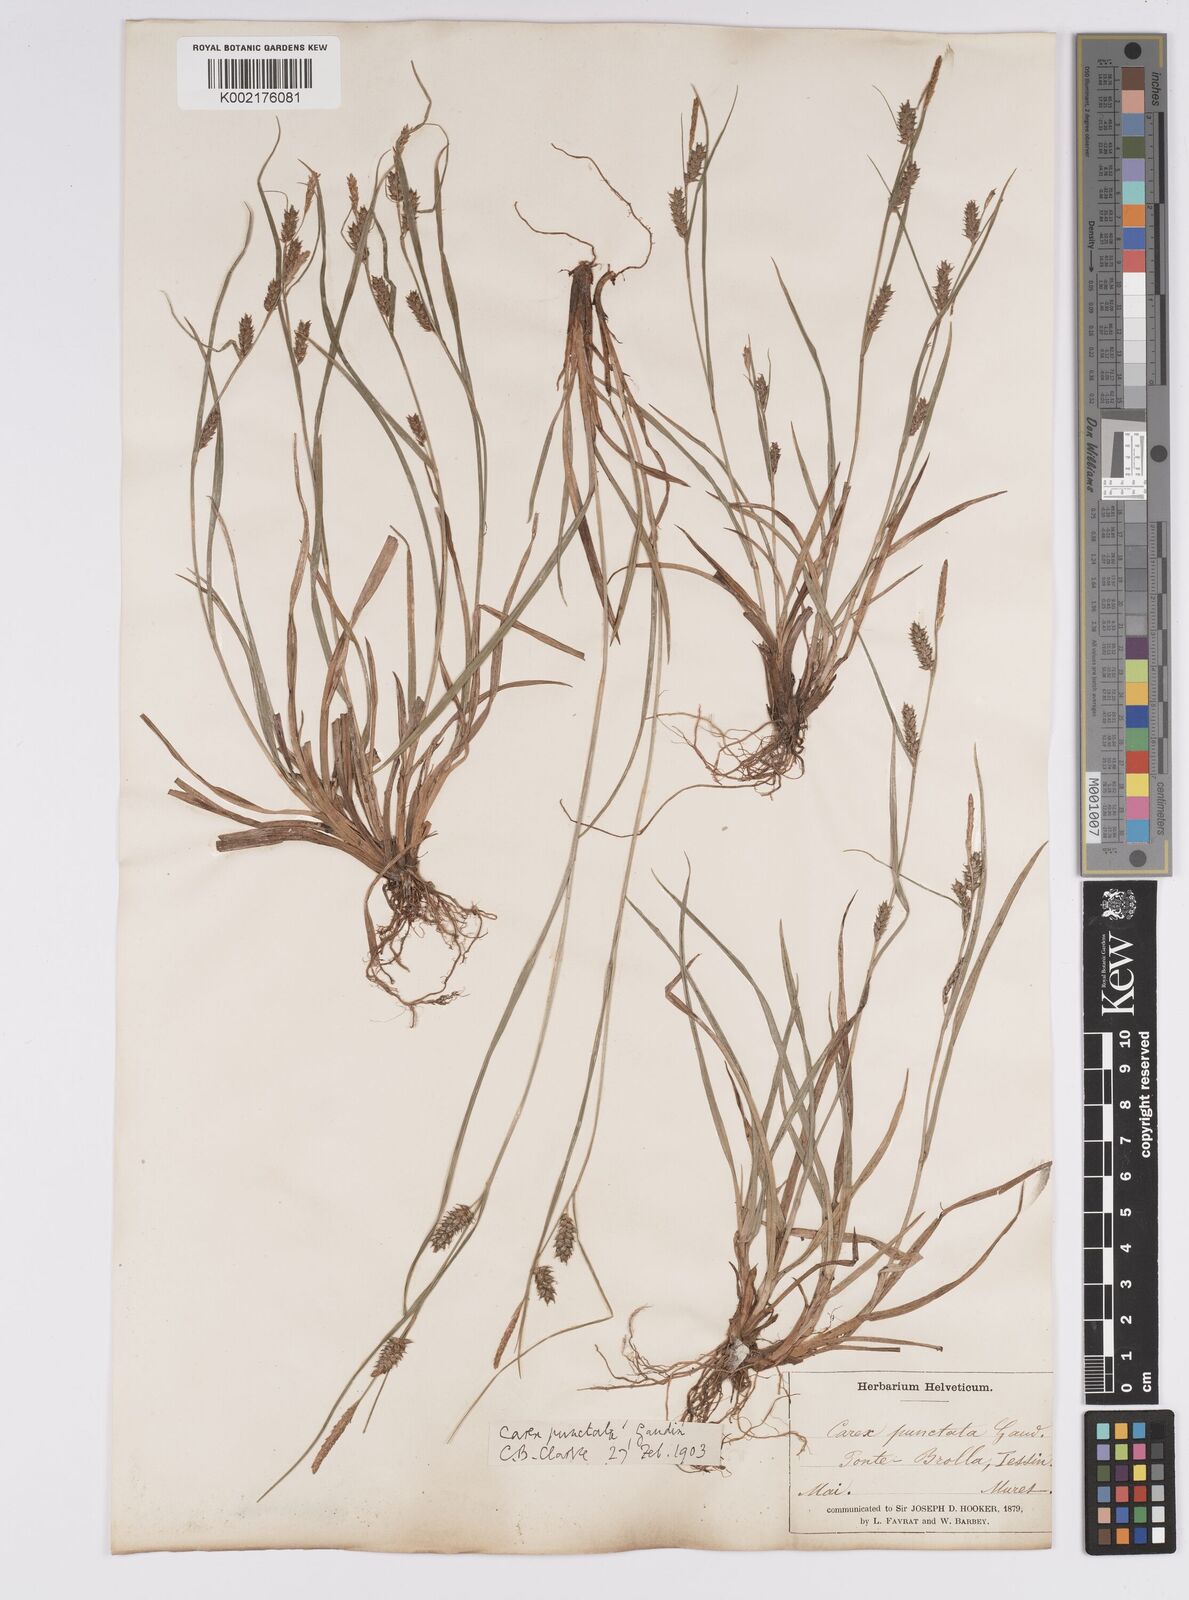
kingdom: Plantae
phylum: Tracheophyta
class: Liliopsida
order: Poales
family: Cyperaceae
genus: Carex
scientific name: Carex punctata
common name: Dotted sedge
